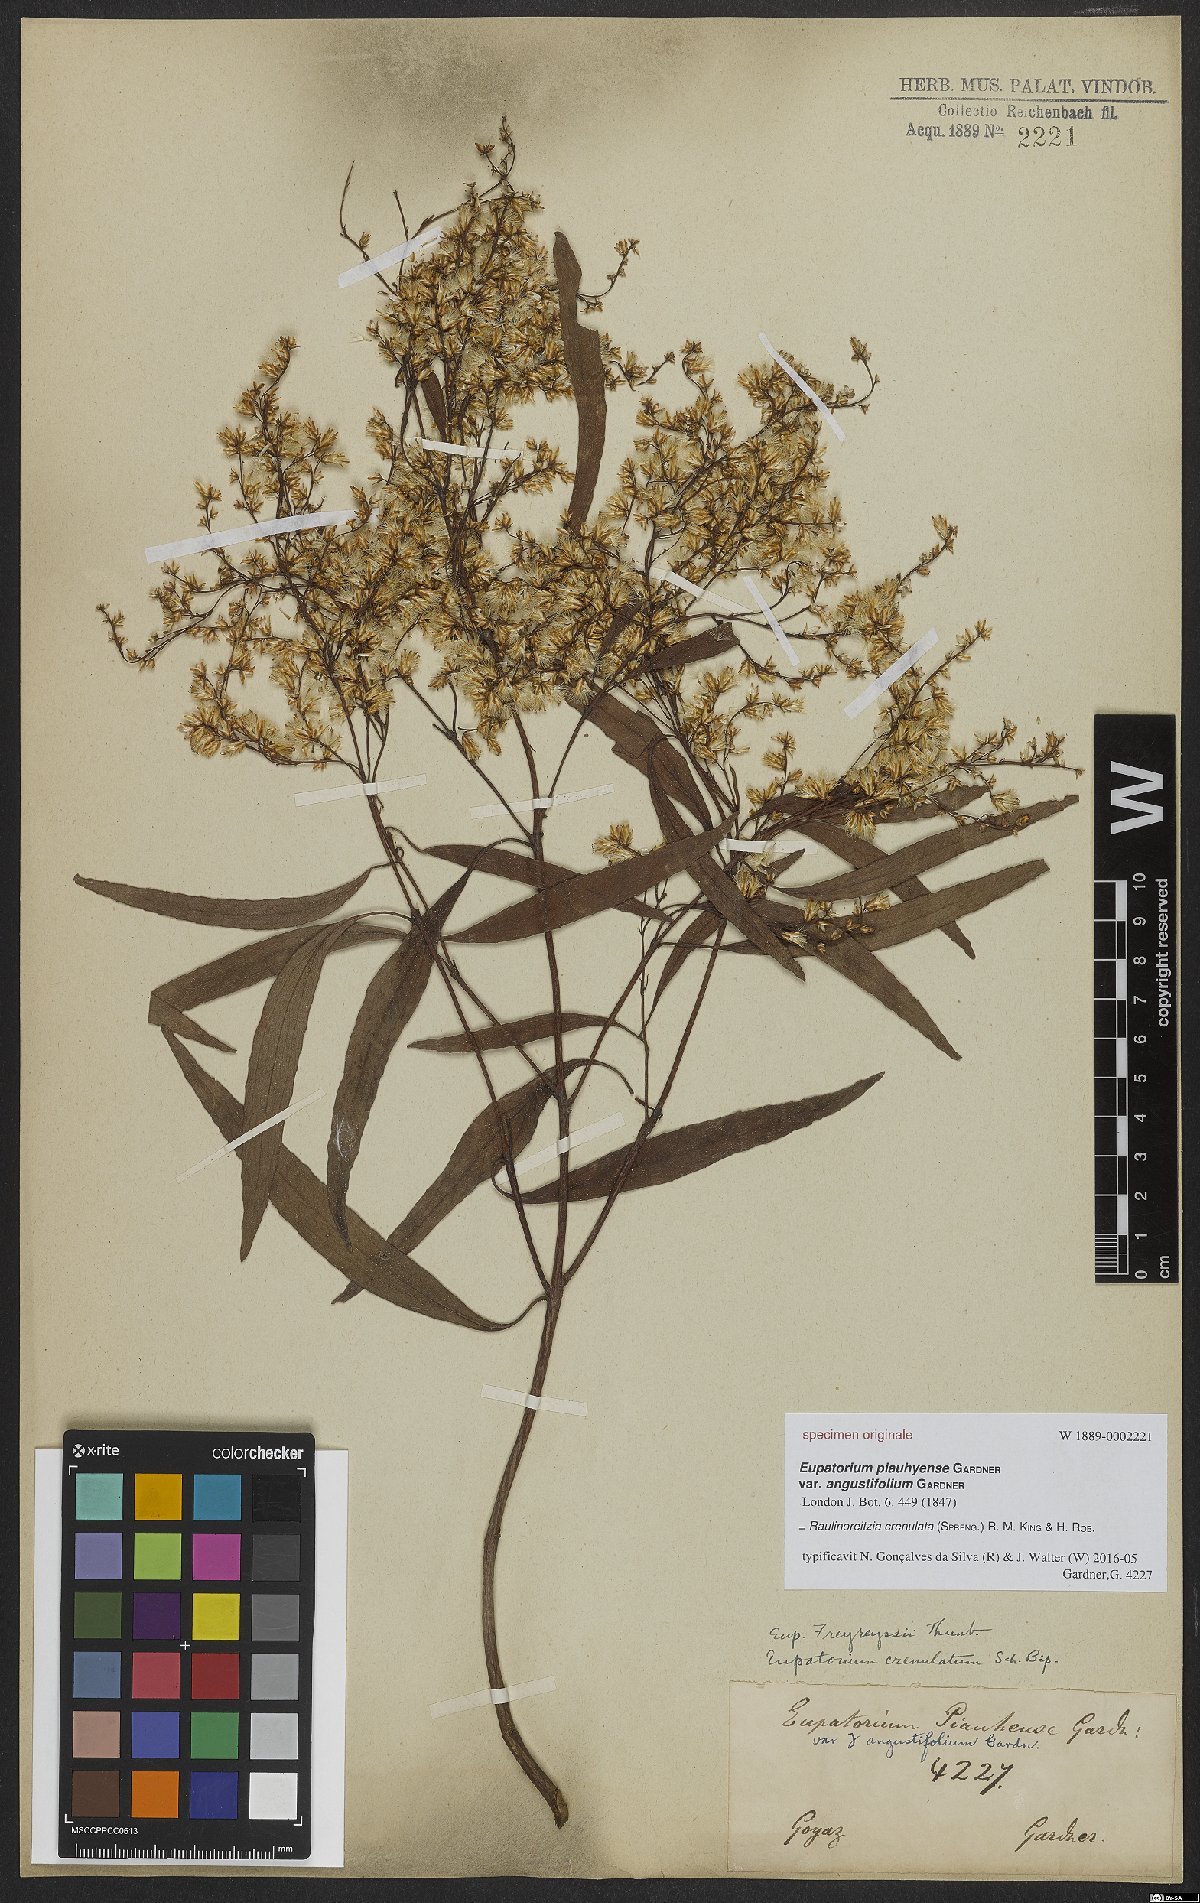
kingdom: Plantae
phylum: Tracheophyta
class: Magnoliopsida
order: Asterales
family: Asteraceae
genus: Raulinoreitzia
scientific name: Raulinoreitzia crenulata
